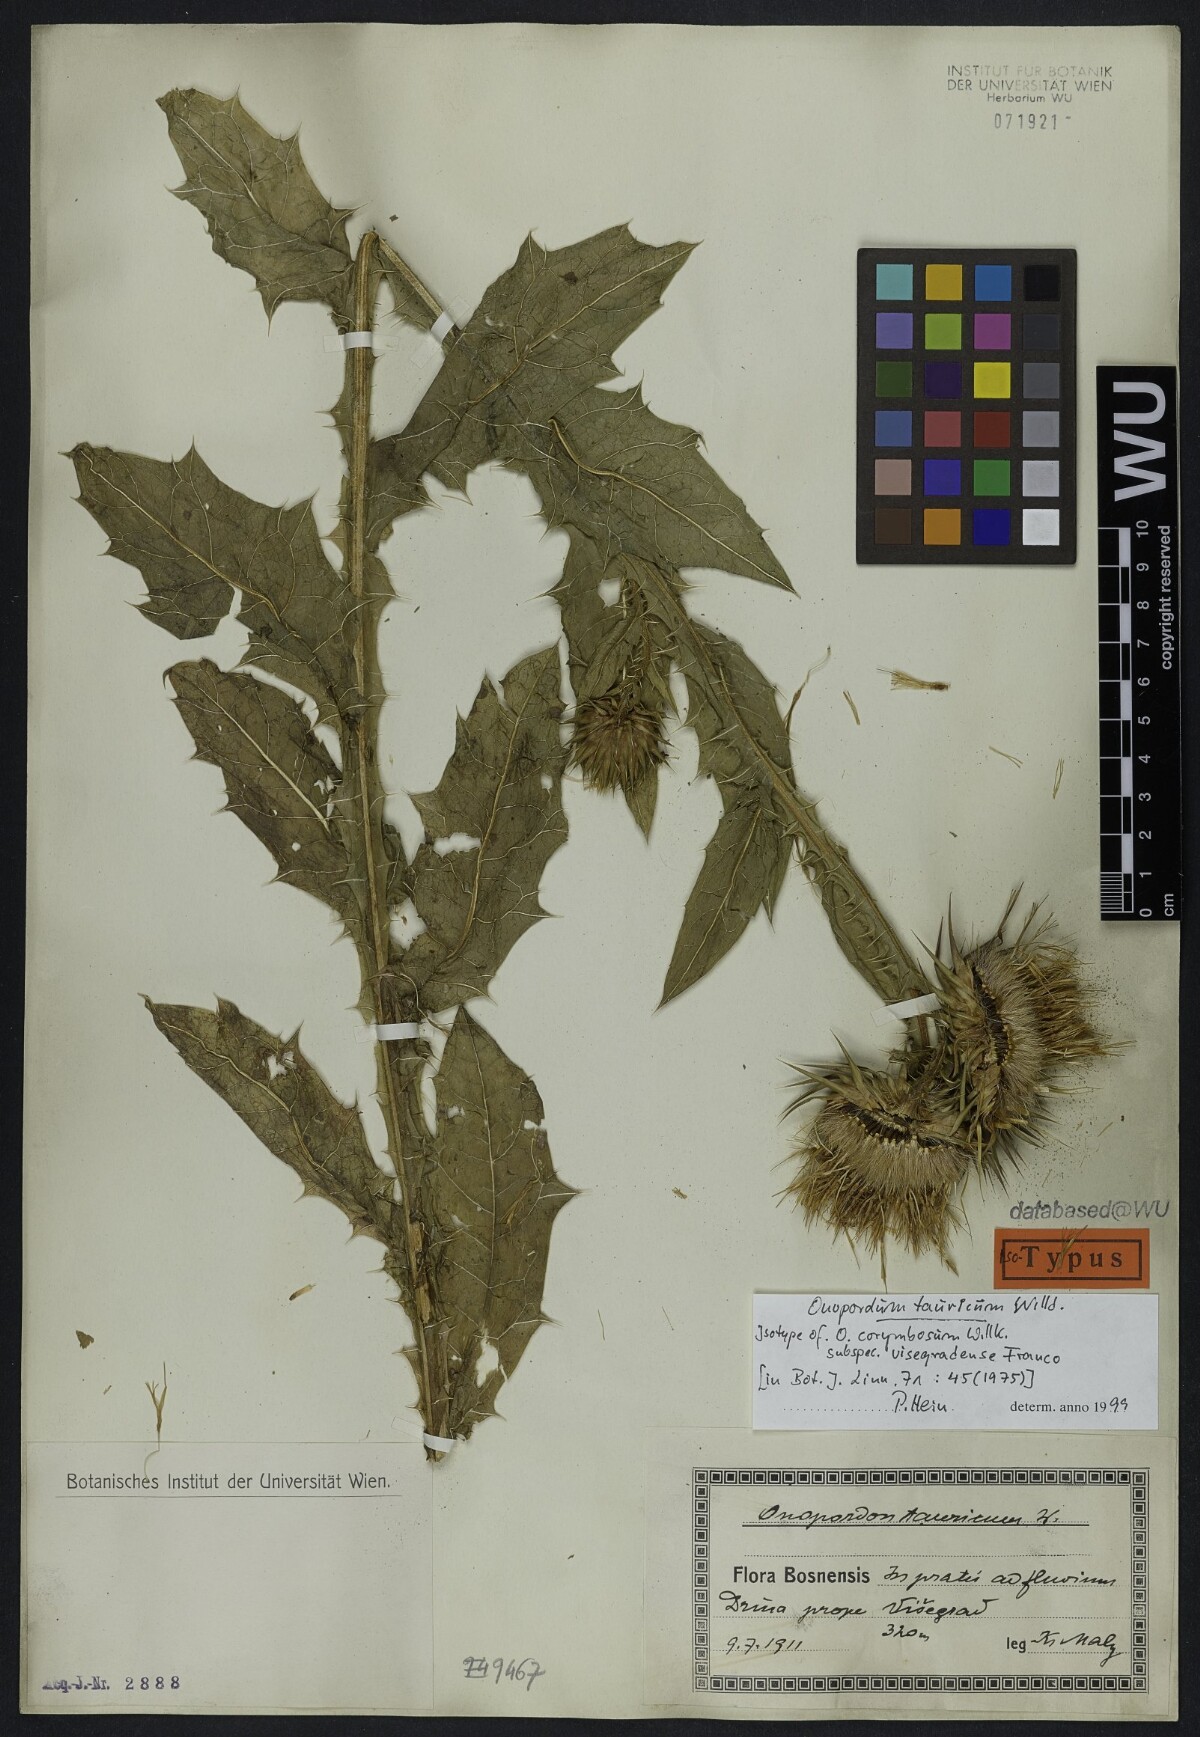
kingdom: Plantae
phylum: Tracheophyta
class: Magnoliopsida
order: Asterales
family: Asteraceae
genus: Onopordum
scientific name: Onopordum tauricum
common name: Bull cottonthistle
